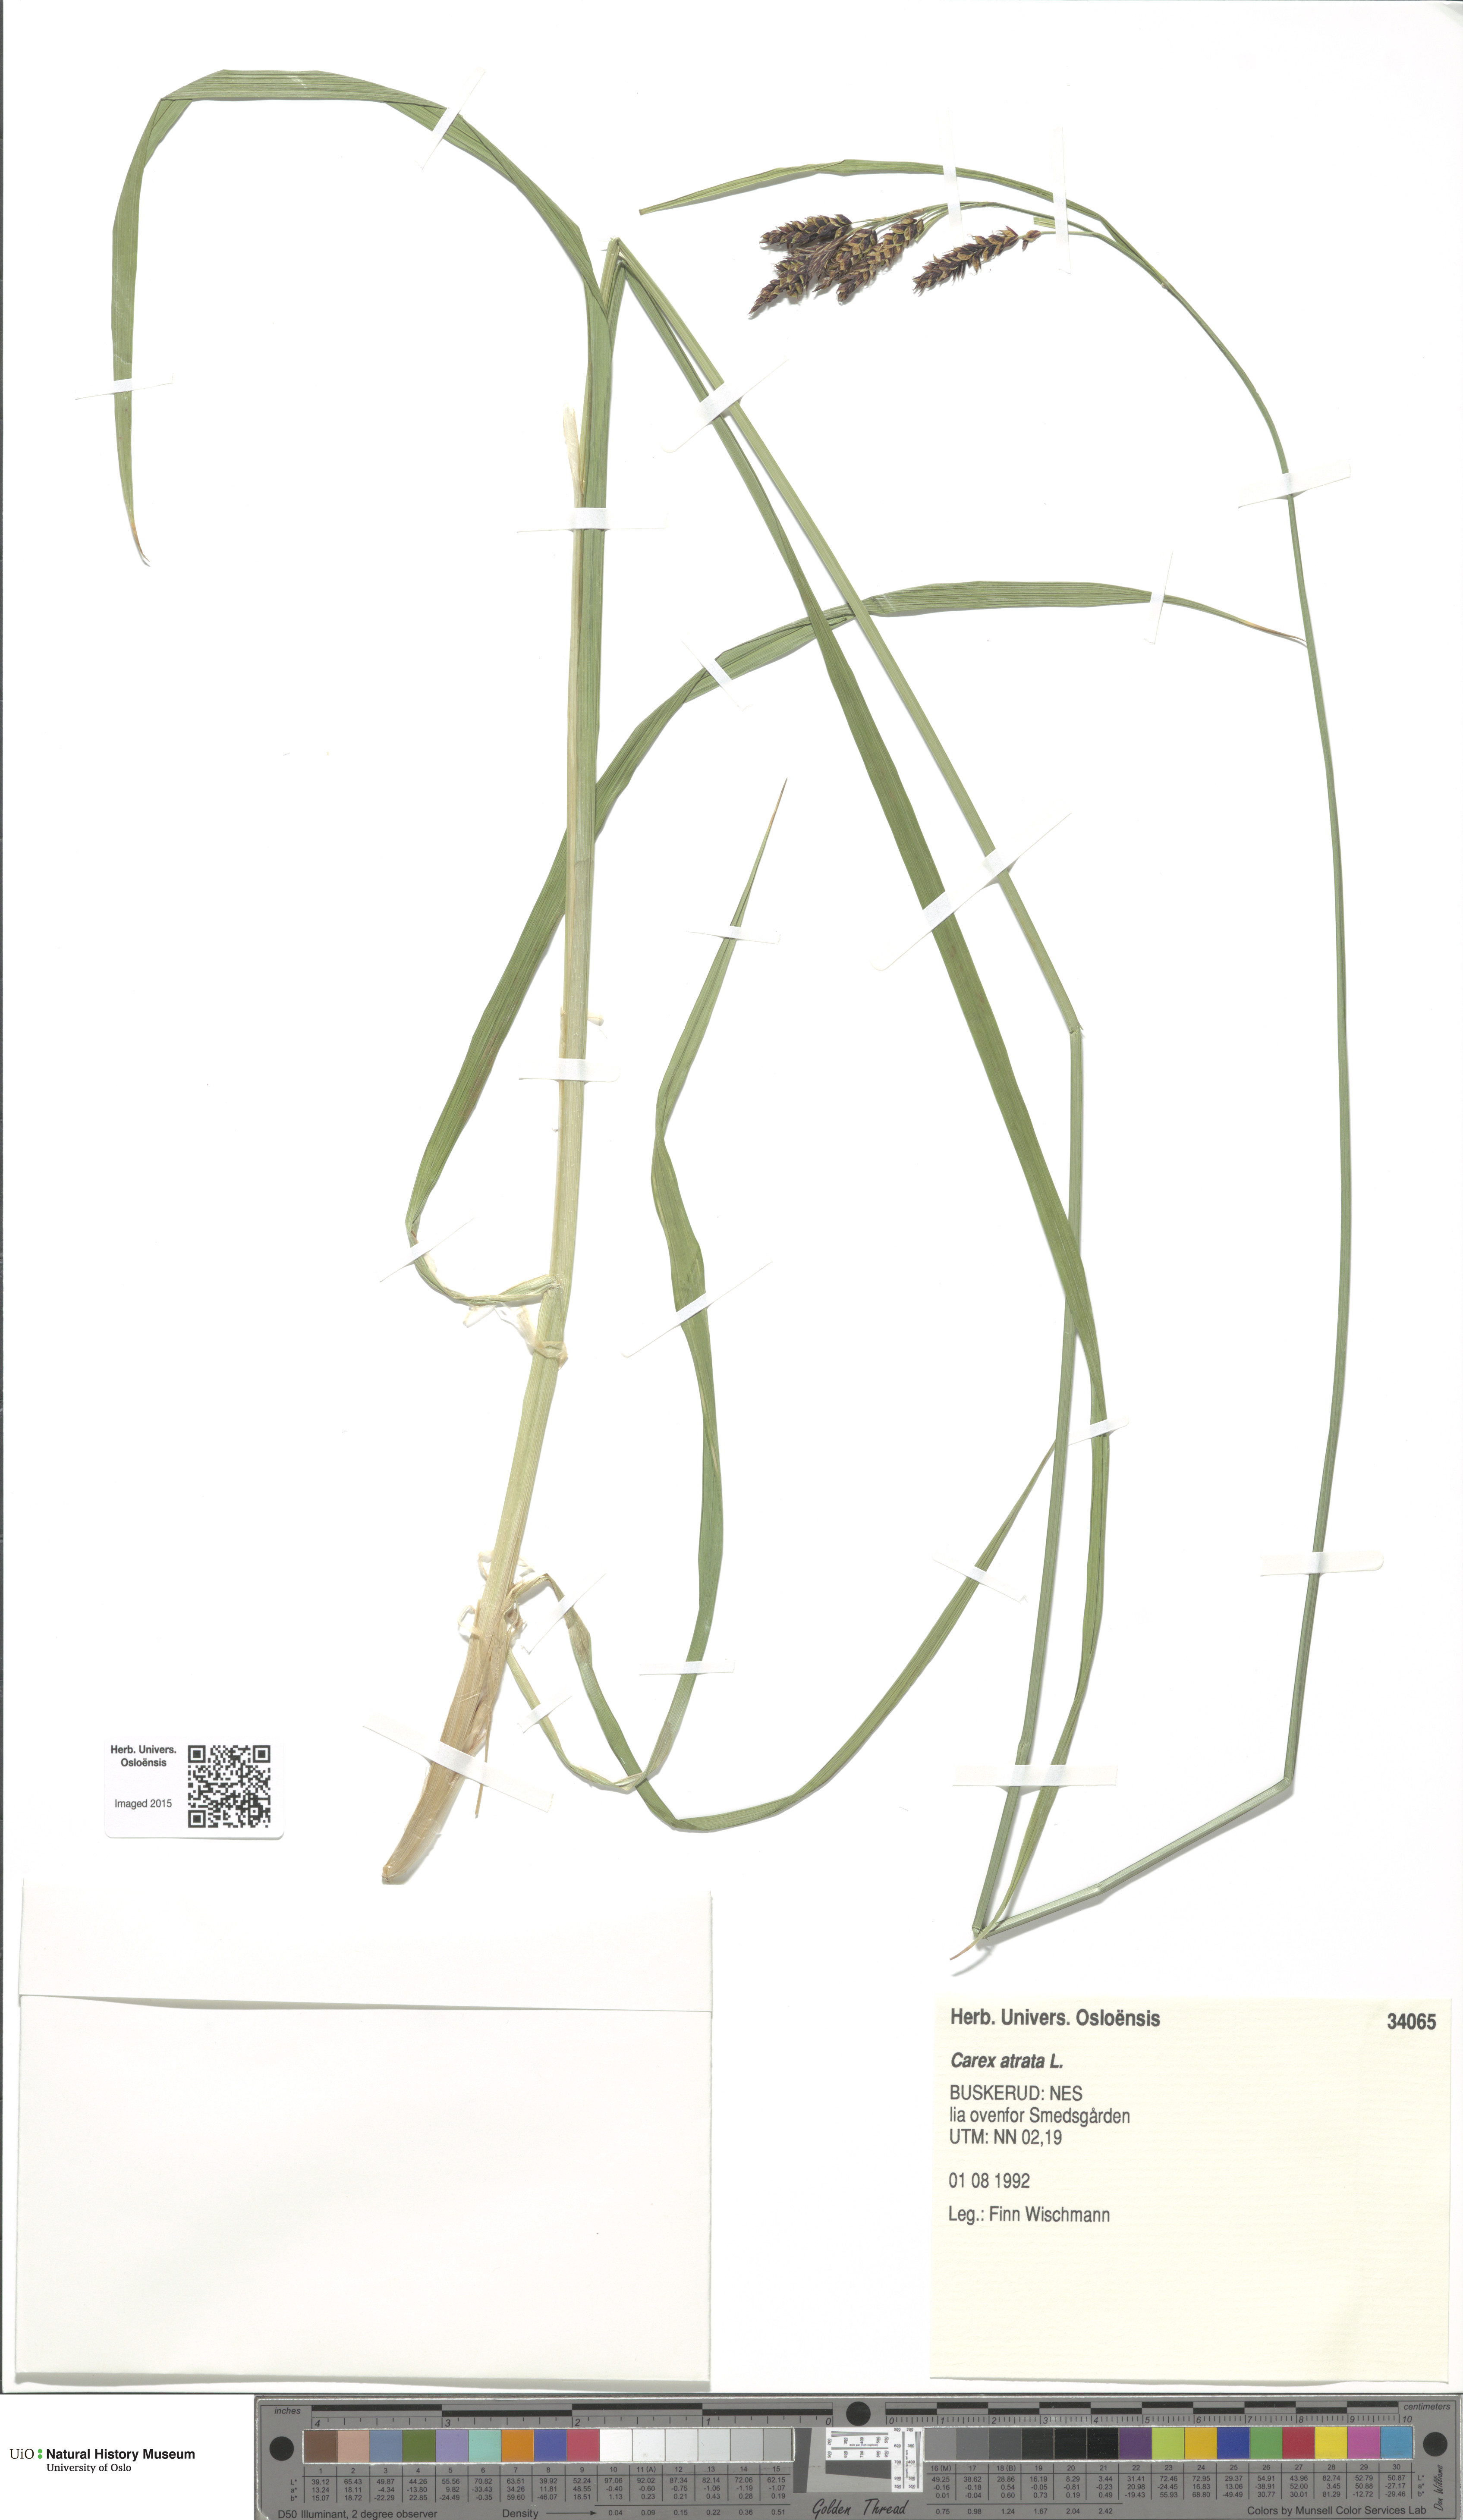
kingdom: Plantae
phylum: Tracheophyta
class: Liliopsida
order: Poales
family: Cyperaceae
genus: Carex
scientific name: Carex atrata
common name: Black alpine sedge
